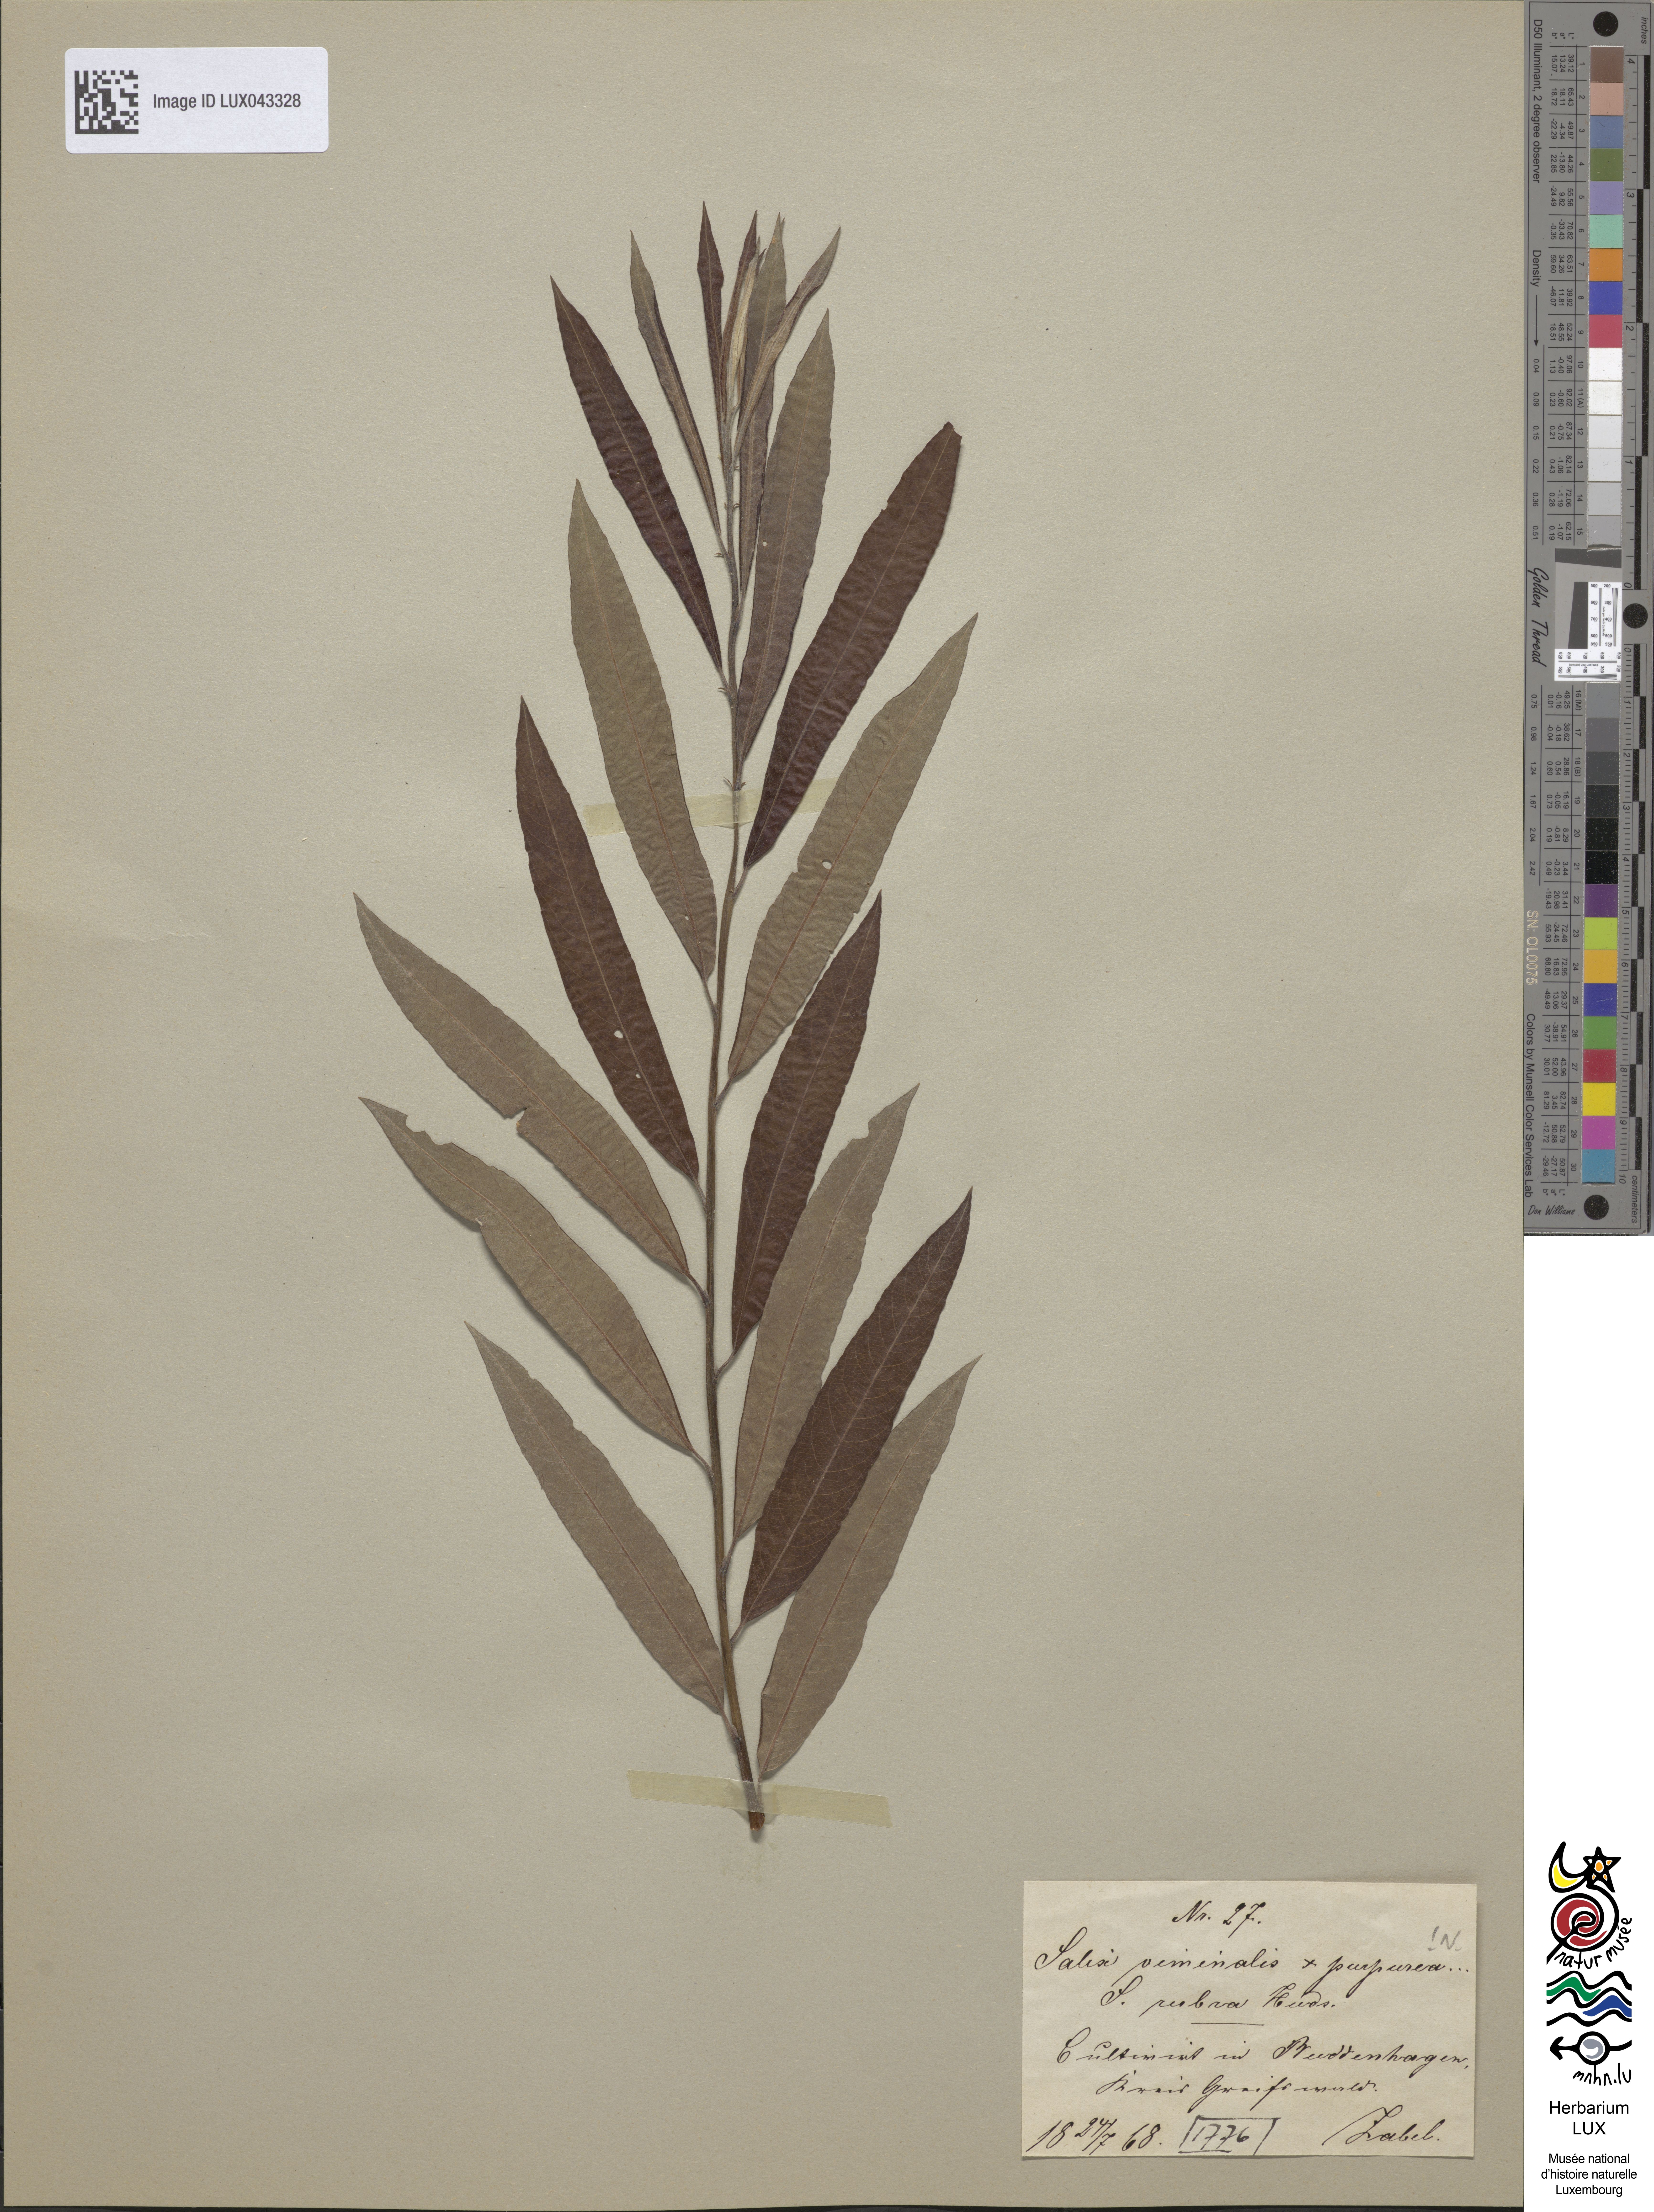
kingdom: Plantae
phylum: Tracheophyta
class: Magnoliopsida
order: Malpighiales
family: Salicaceae
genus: Salix
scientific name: Salix
